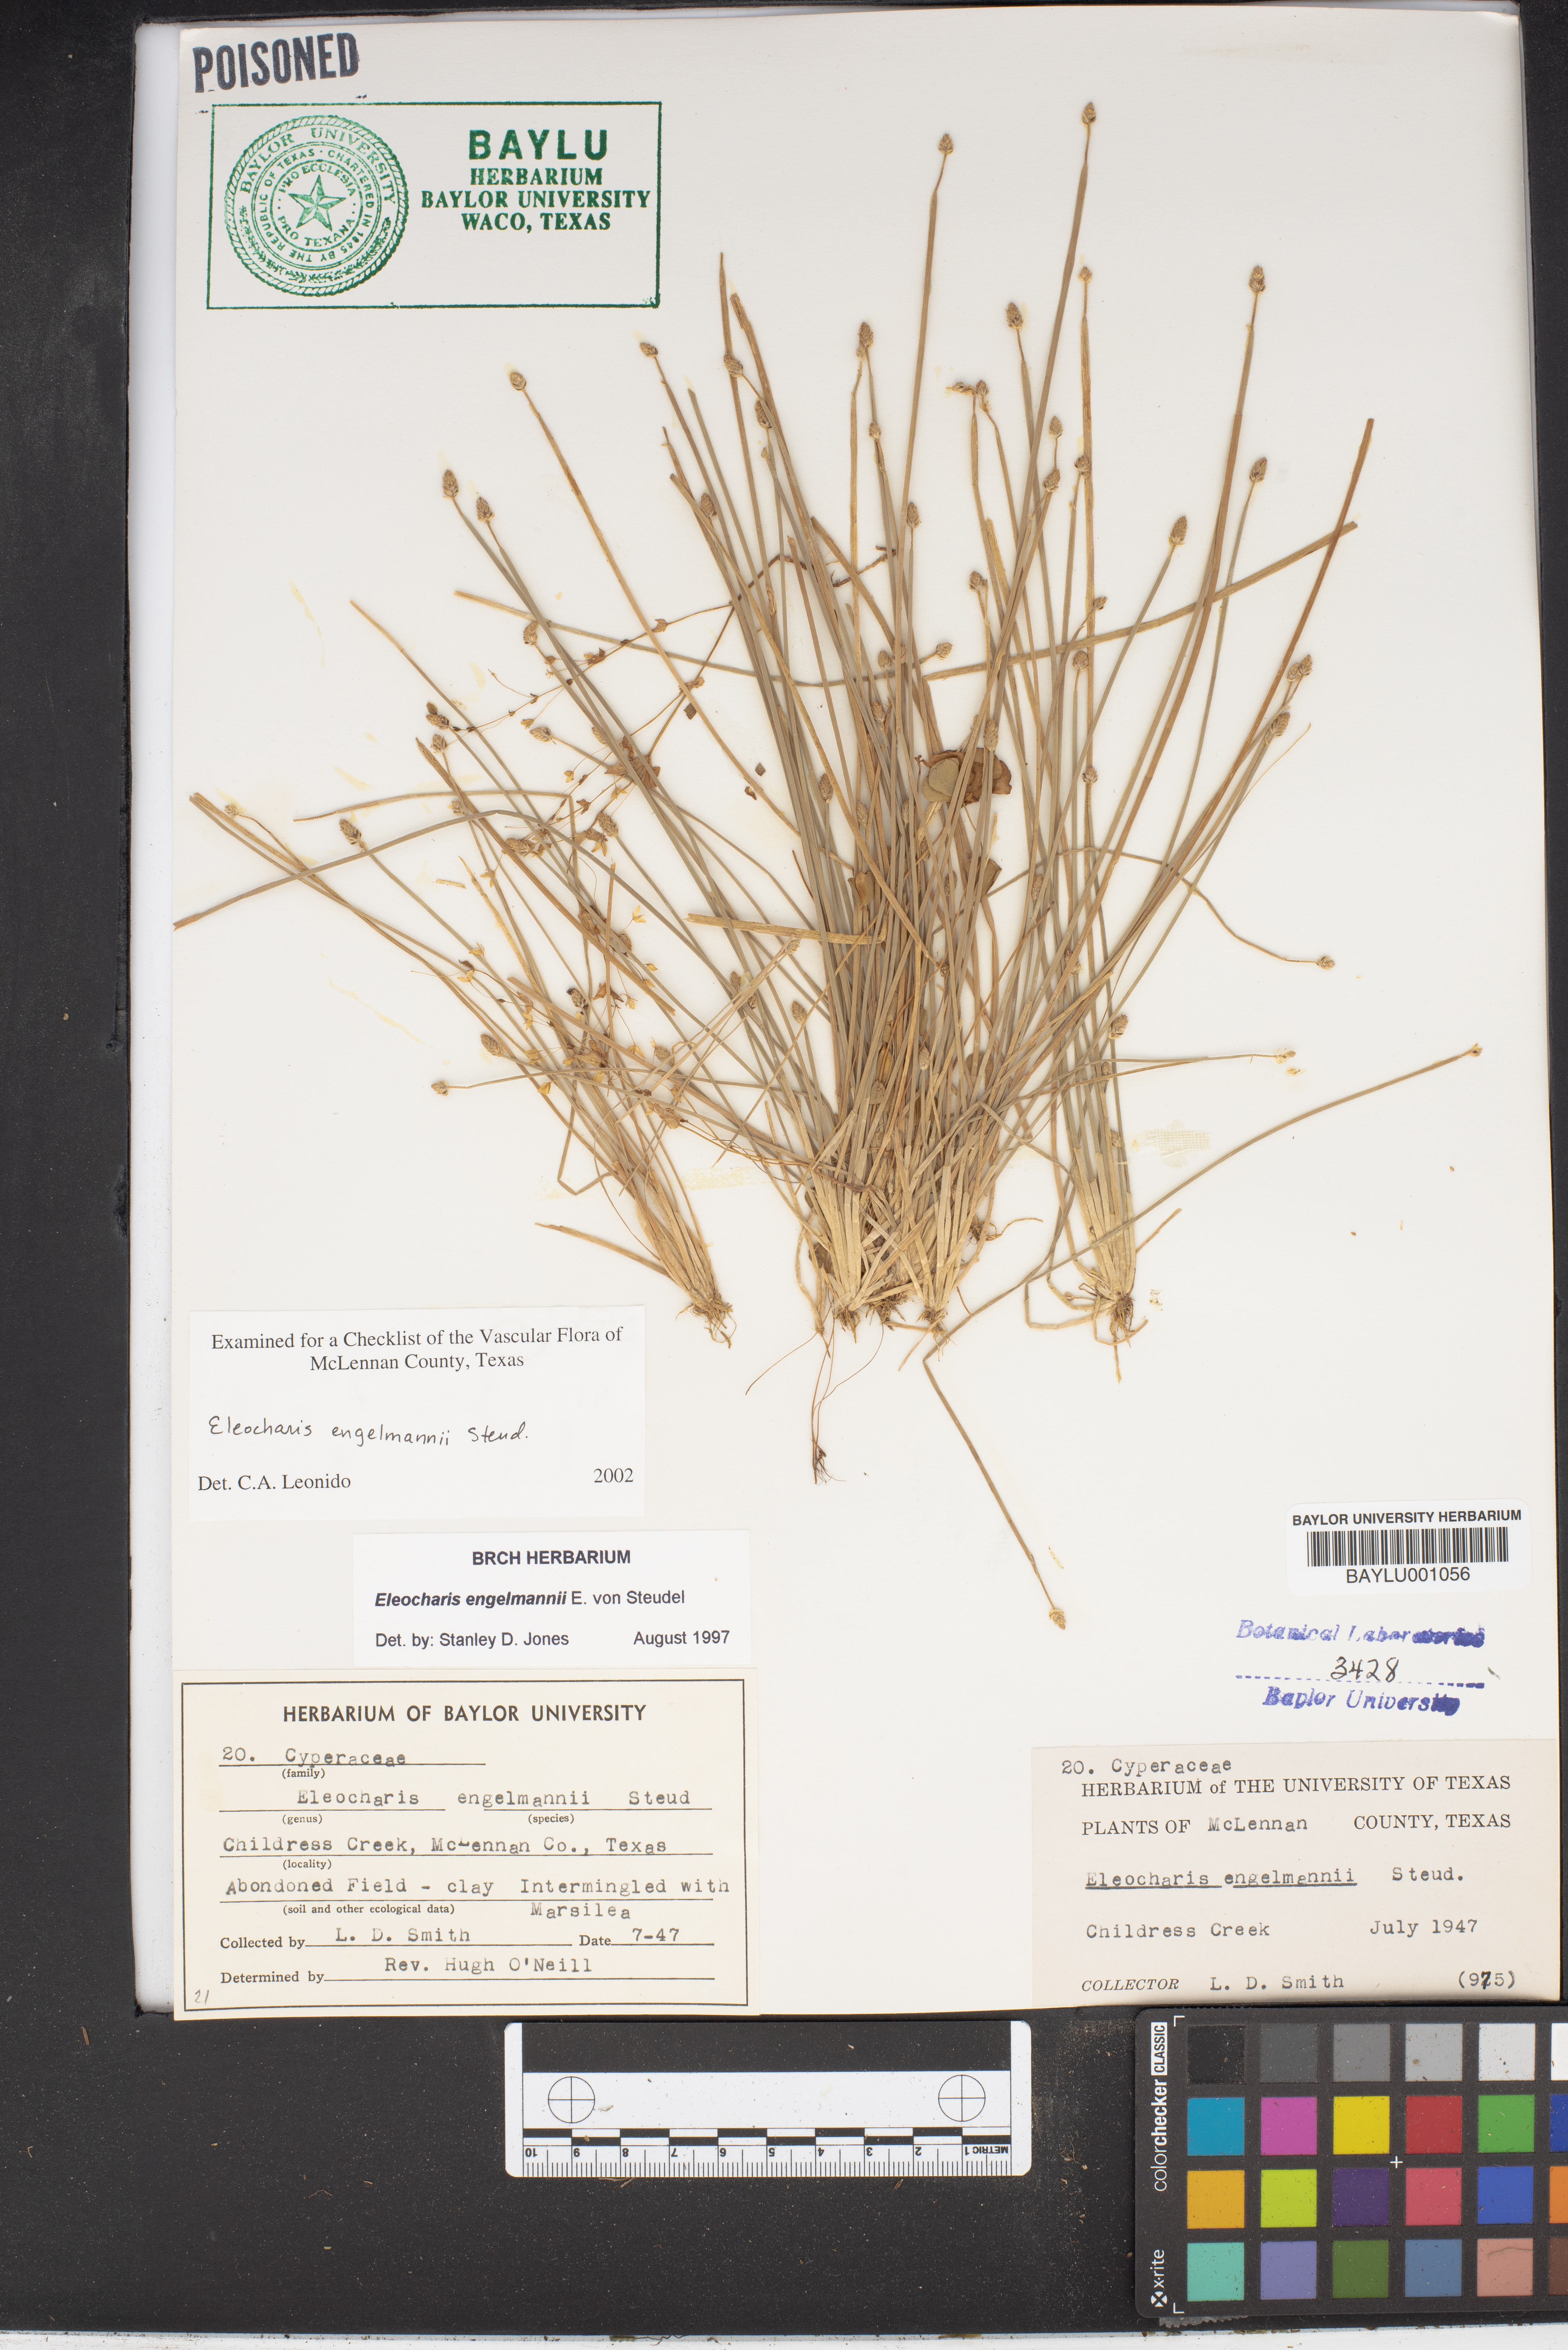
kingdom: Plantae
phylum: Tracheophyta
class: Liliopsida
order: Poales
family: Cyperaceae
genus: Eleocharis
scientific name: Eleocharis engelmannii
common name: Engelmann's spikerush
